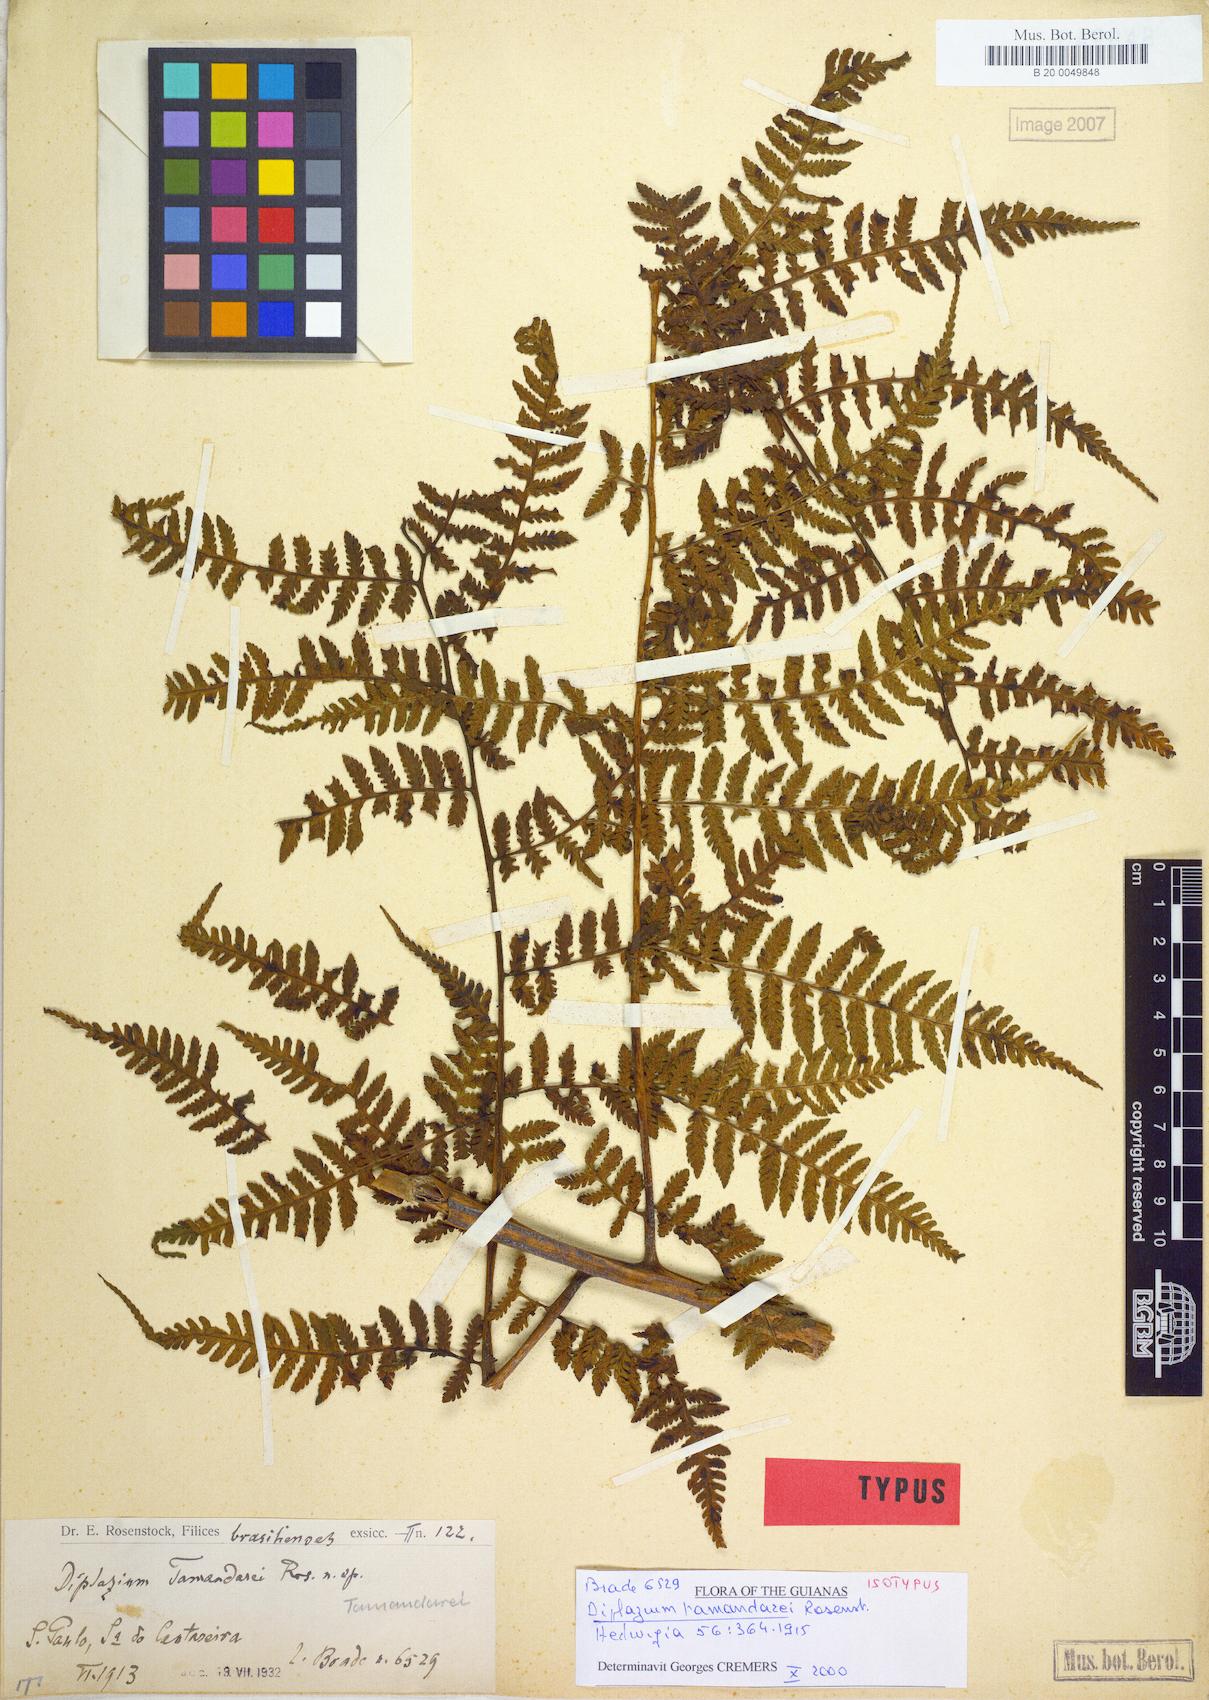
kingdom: Plantae
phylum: Tracheophyta
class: Polypodiopsida
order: Polypodiales
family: Athyriaceae
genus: Diplazium
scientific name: Diplazium tamandarei
